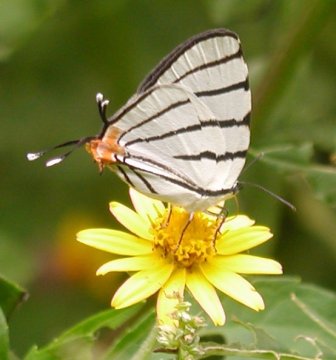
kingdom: Animalia
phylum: Arthropoda
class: Insecta
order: Lepidoptera
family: Lycaenidae
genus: Arawacus
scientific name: Arawacus sito
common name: Fine-lined Hairstreak
